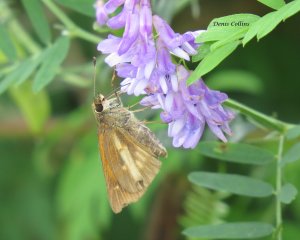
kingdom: Animalia
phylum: Arthropoda
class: Insecta
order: Lepidoptera
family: Hesperiidae
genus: Poanes
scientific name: Poanes viator
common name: Broad-winged Skipper
